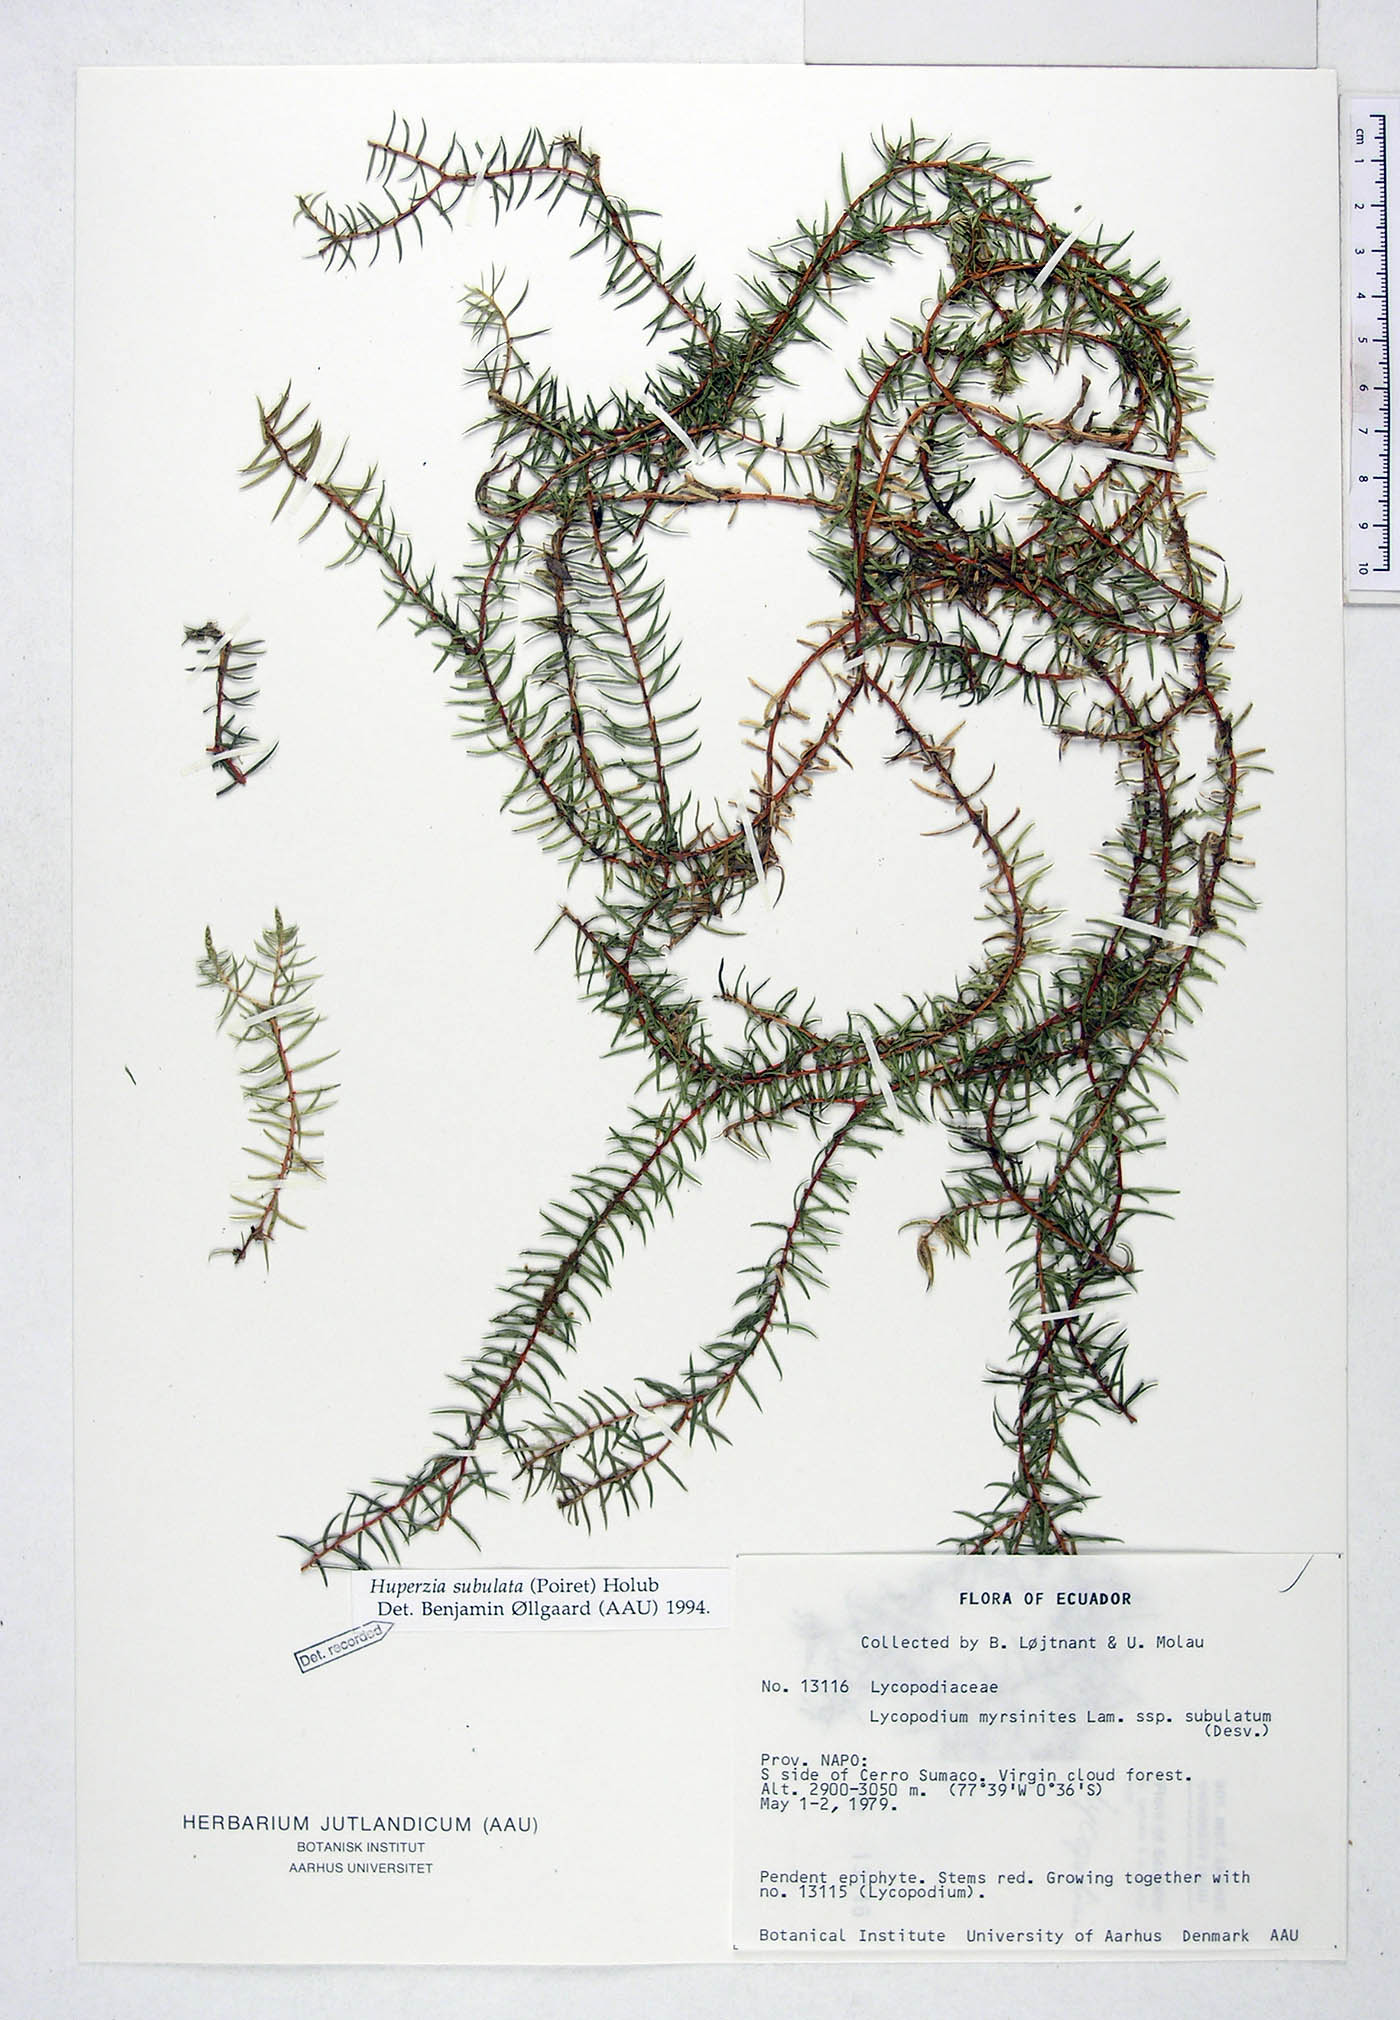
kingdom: Plantae
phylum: Tracheophyta
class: Lycopodiopsida
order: Lycopodiales
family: Lycopodiaceae
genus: Phlegmariurus
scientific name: Phlegmariurus subulatus
